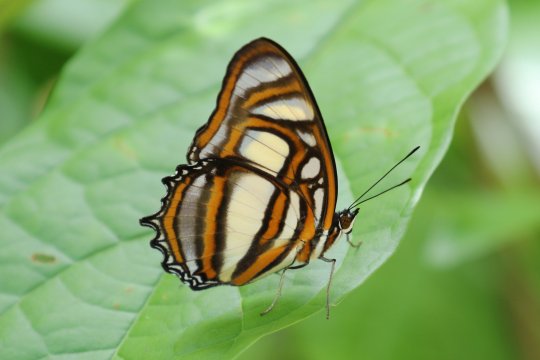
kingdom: Animalia
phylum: Arthropoda
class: Insecta
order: Lepidoptera
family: Nymphalidae
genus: Metamorpha
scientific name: Metamorpha elissa
